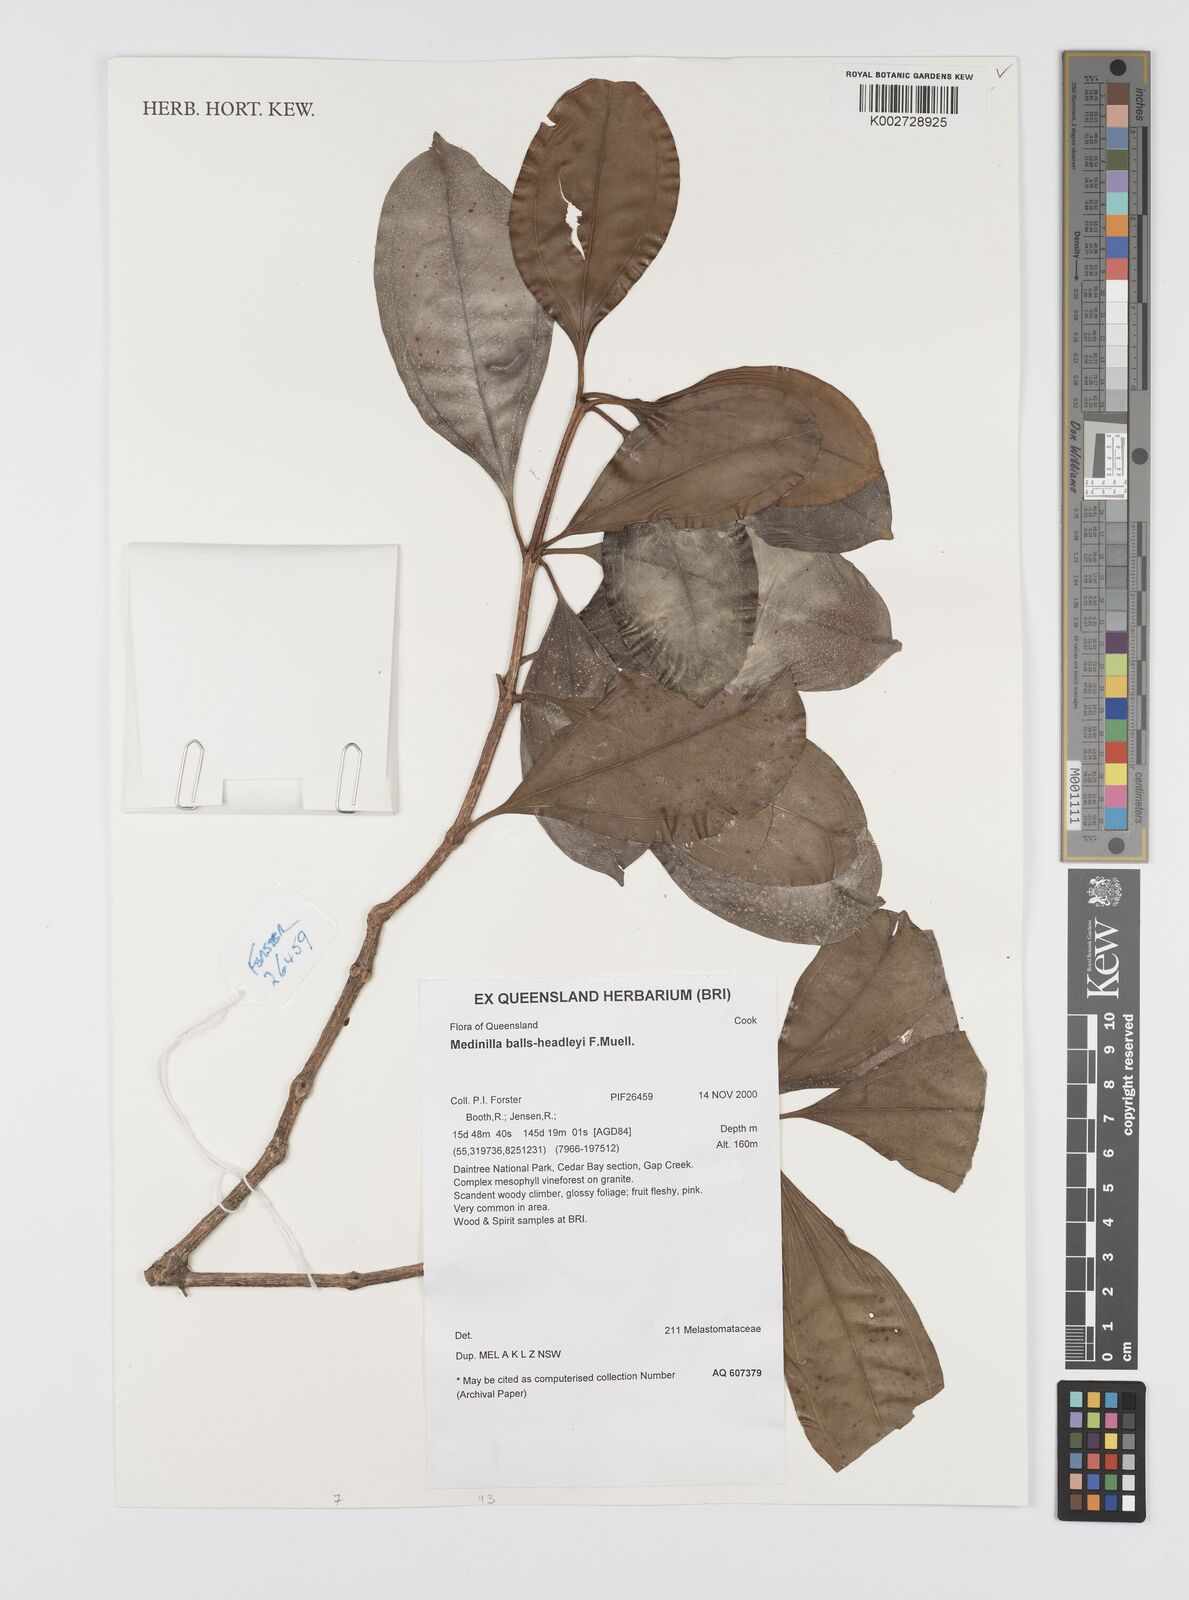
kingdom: Plantae
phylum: Tracheophyta
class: Magnoliopsida
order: Myrtales
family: Melastomataceae
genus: Medinilla
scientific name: Medinilla balls-headleyi
